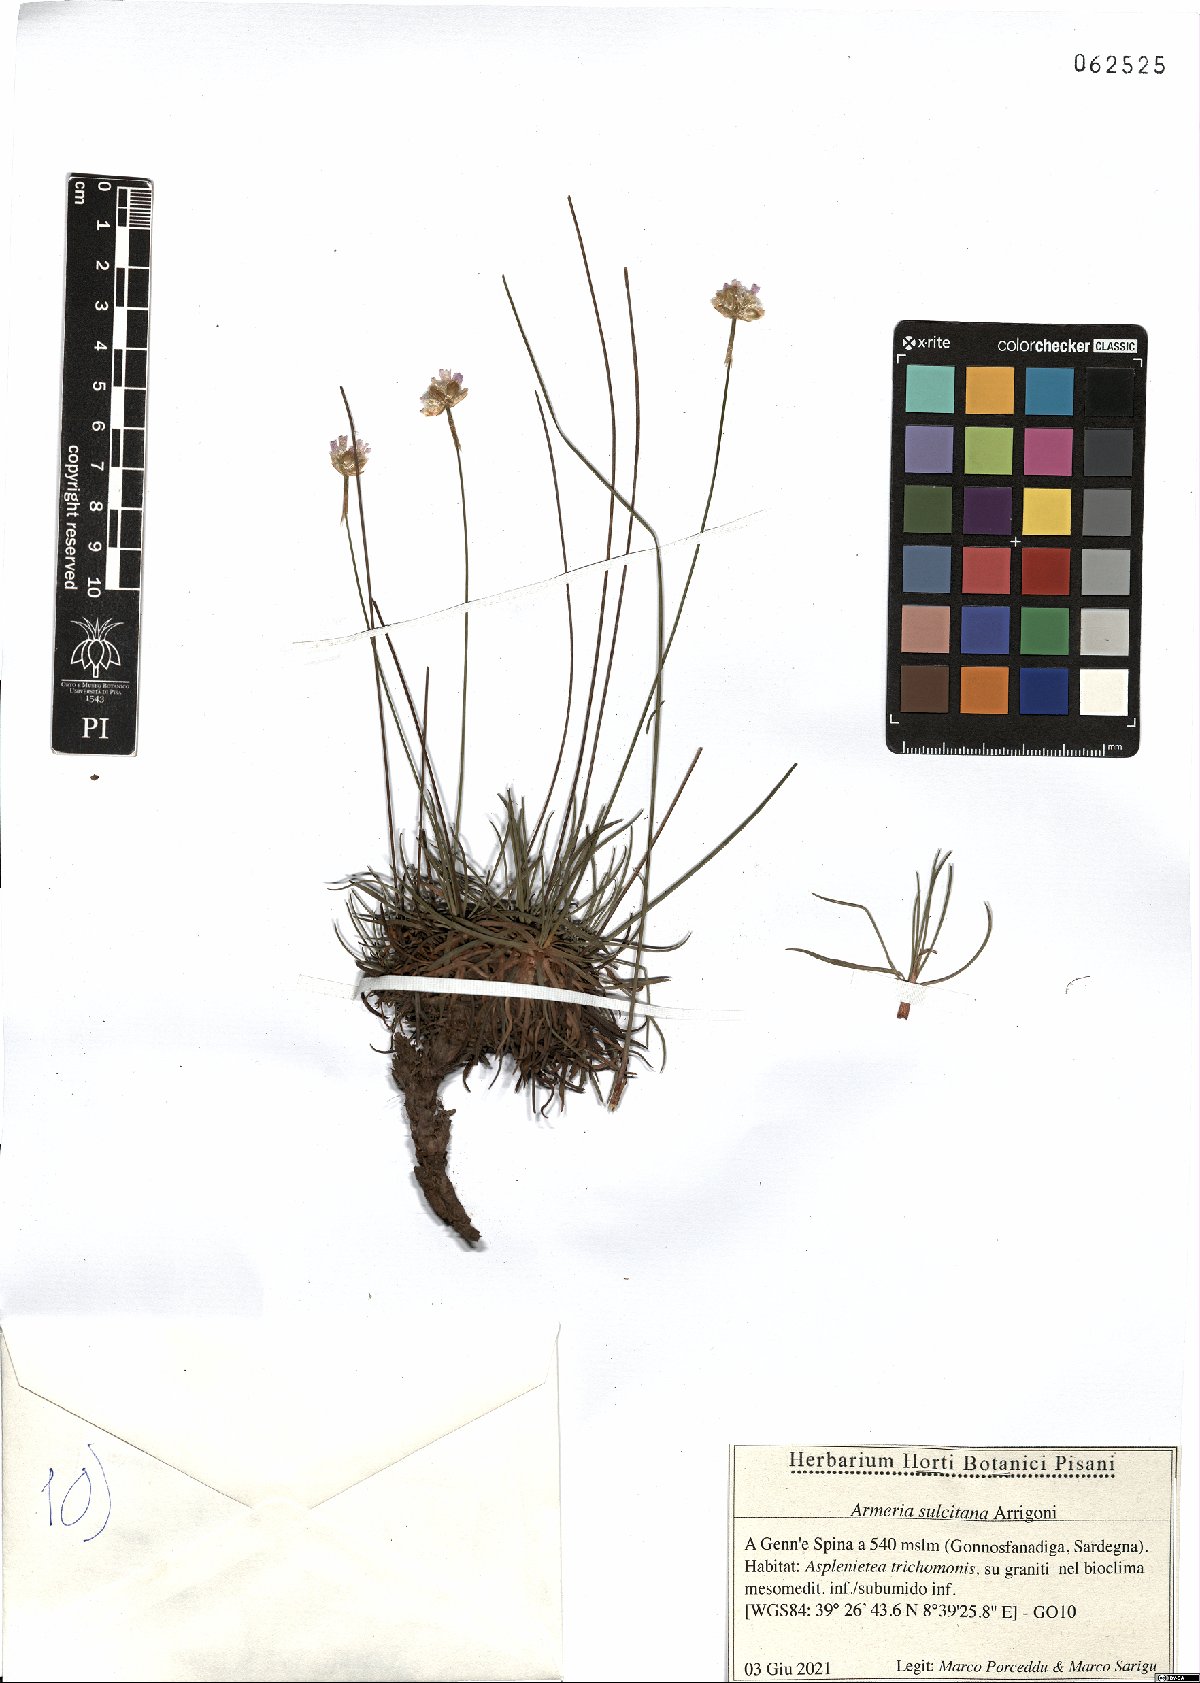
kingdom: Plantae
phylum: Tracheophyta
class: Magnoliopsida
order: Caryophyllales
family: Plumbaginaceae
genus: Armeria
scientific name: Armeria sulcitana
